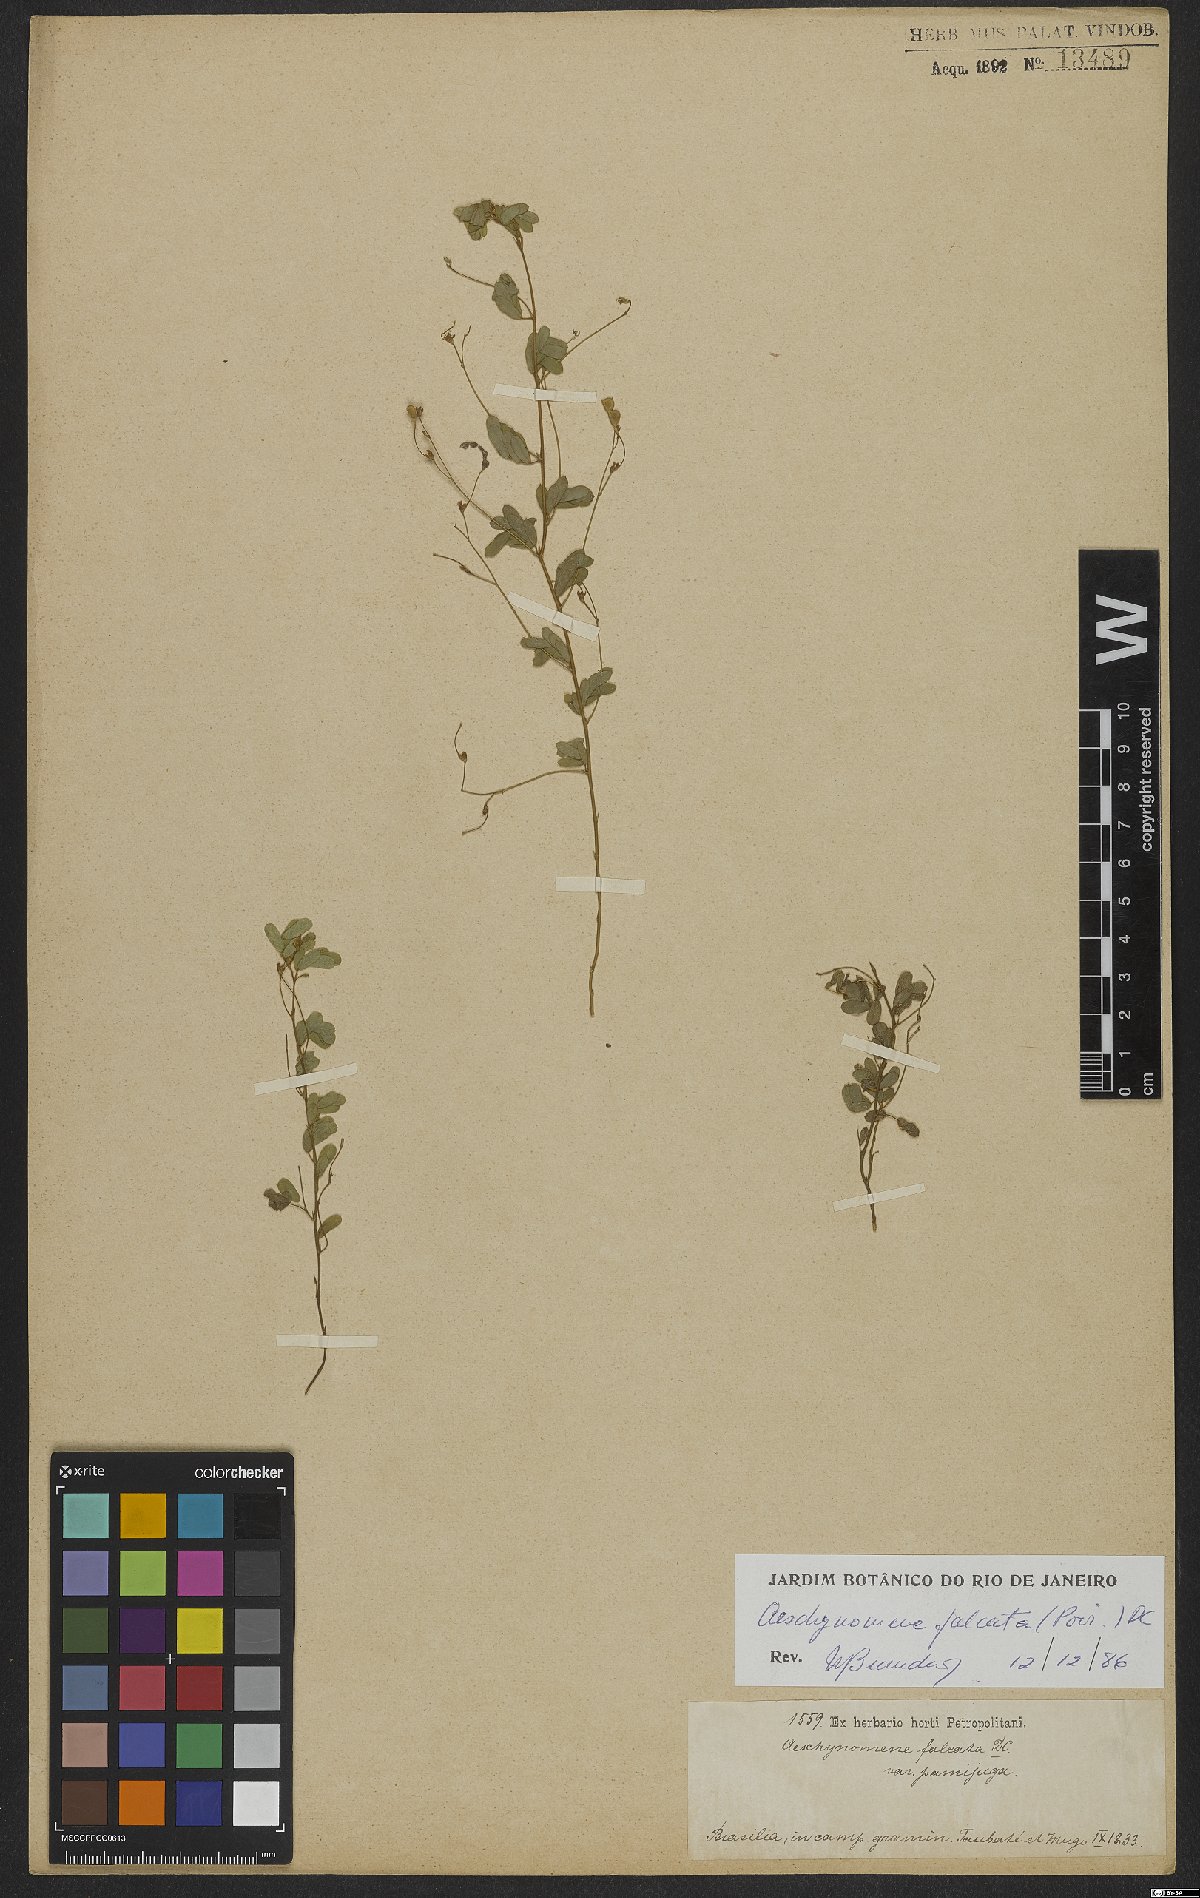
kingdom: Plantae
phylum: Tracheophyta
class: Magnoliopsida
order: Fabales
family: Fabaceae
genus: Ctenodon
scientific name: Ctenodon falcatus
